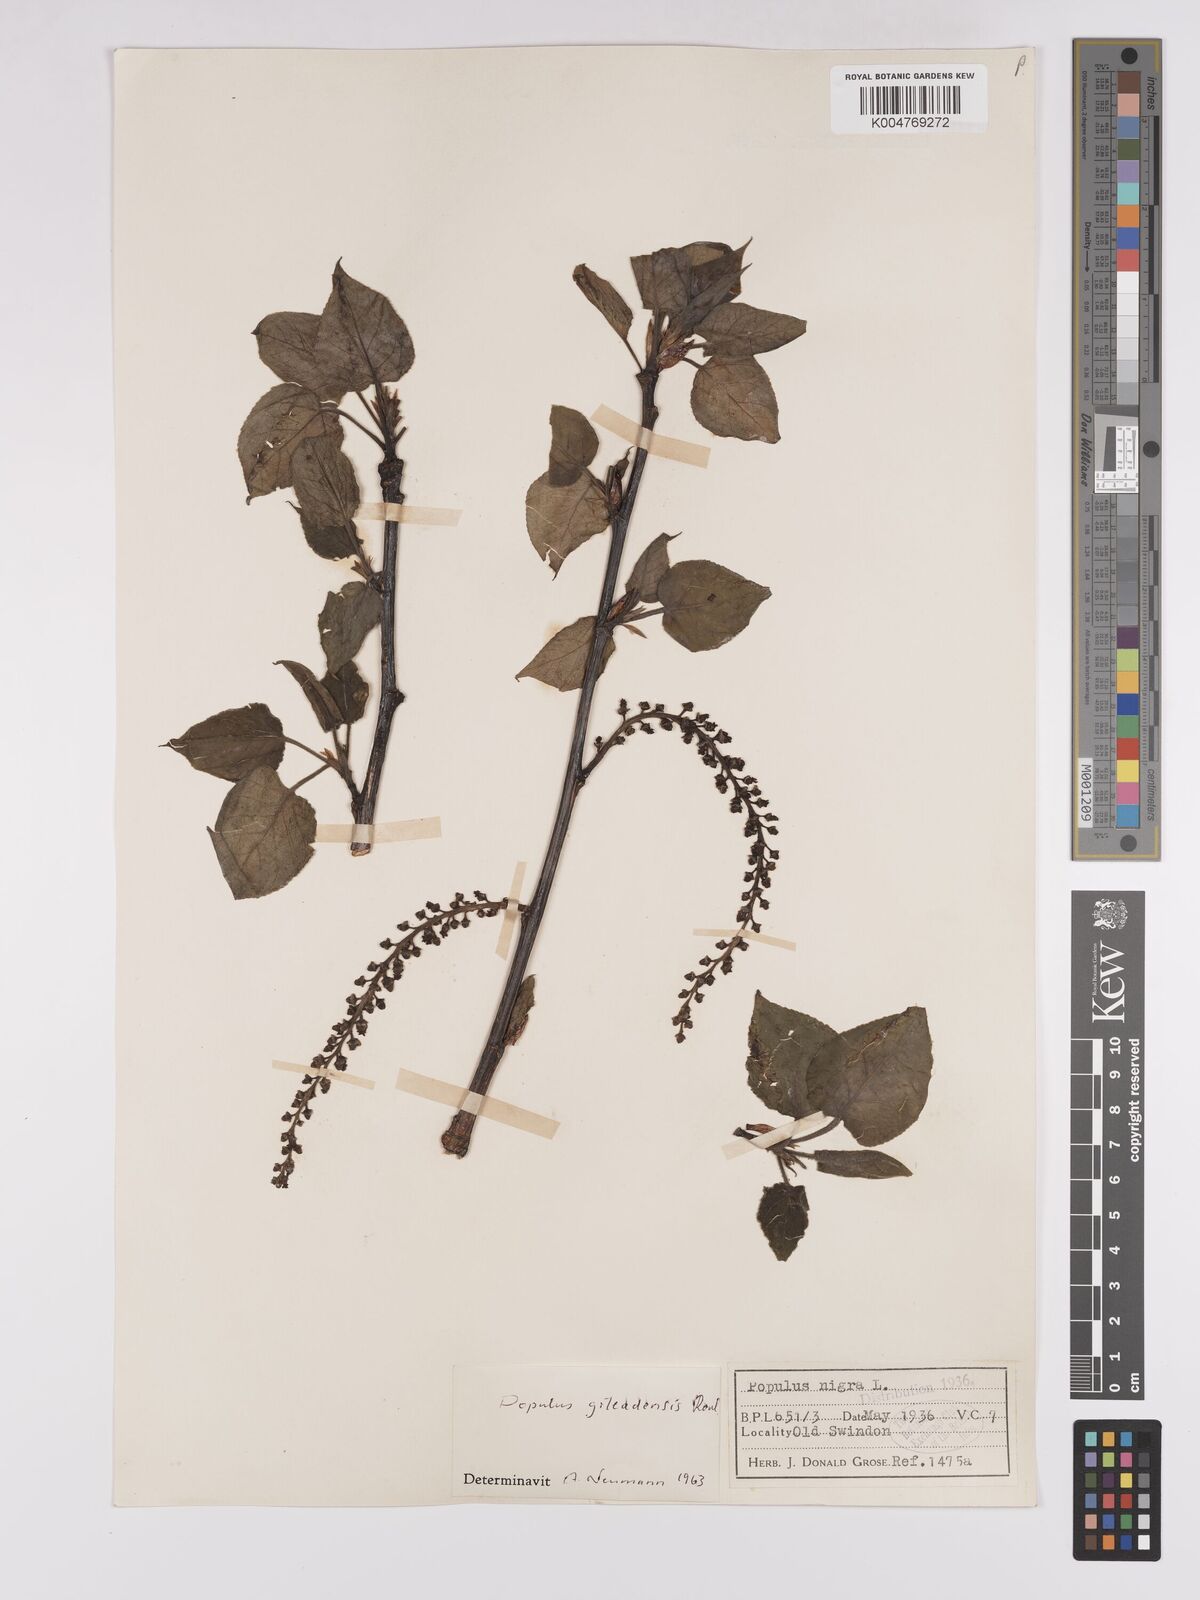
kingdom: Plantae
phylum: Tracheophyta
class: Magnoliopsida
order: Malpighiales
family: Salicaceae
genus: Populus
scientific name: Populus jackii
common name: Balm-of-gilead
